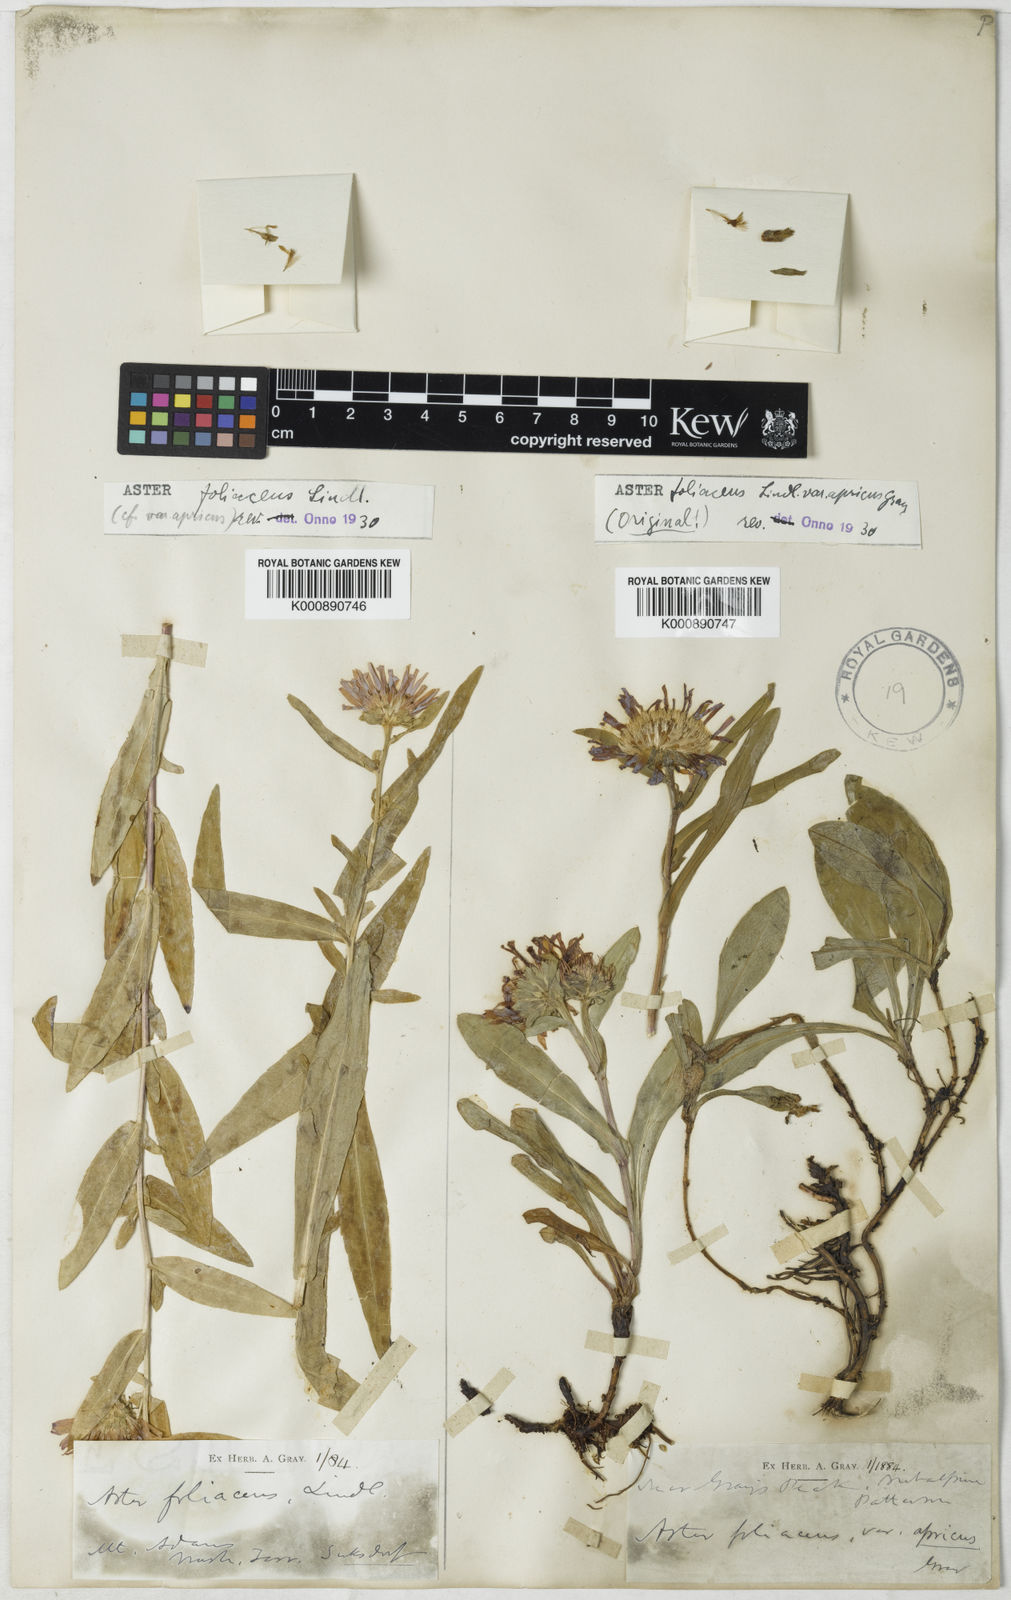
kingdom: Plantae
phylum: Tracheophyta
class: Magnoliopsida
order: Asterales
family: Asteraceae
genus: Symphyotrichum
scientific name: Symphyotrichum foliaceum
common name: Leafy aster
